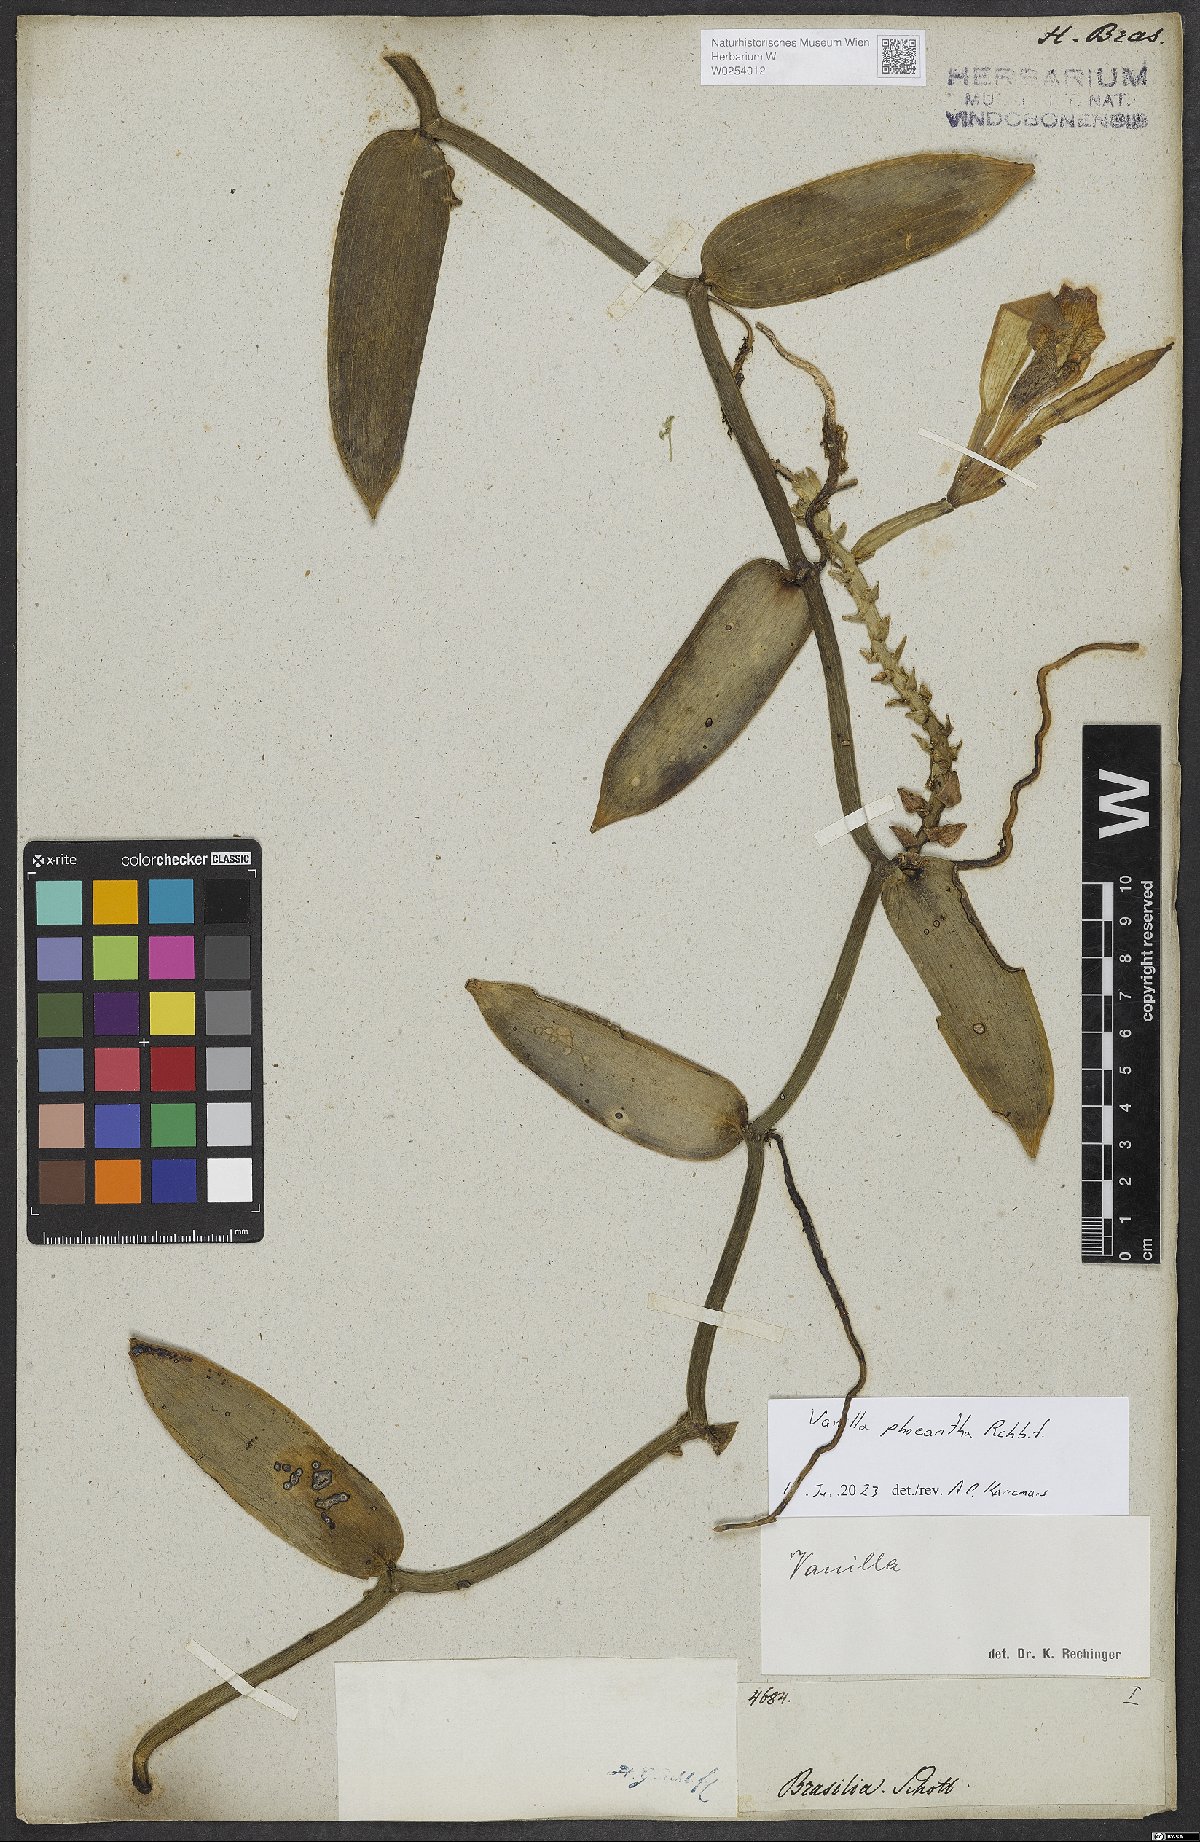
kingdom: Plantae
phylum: Tracheophyta
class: Liliopsida
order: Asparagales
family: Orchidaceae
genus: Vanilla
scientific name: Vanilla phaeantha
